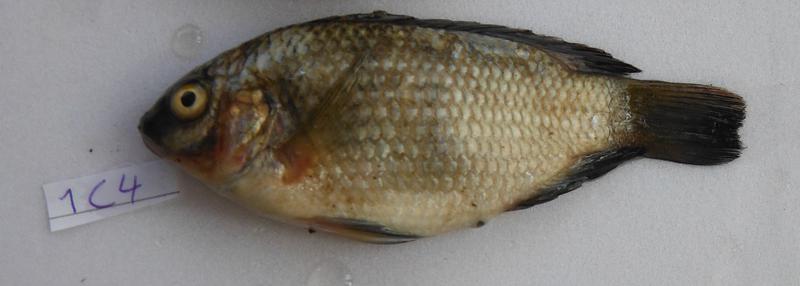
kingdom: Animalia
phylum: Chordata
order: Perciformes
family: Cichlidae
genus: Oreochromis
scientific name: Oreochromis urolepis
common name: Wami tilapia
